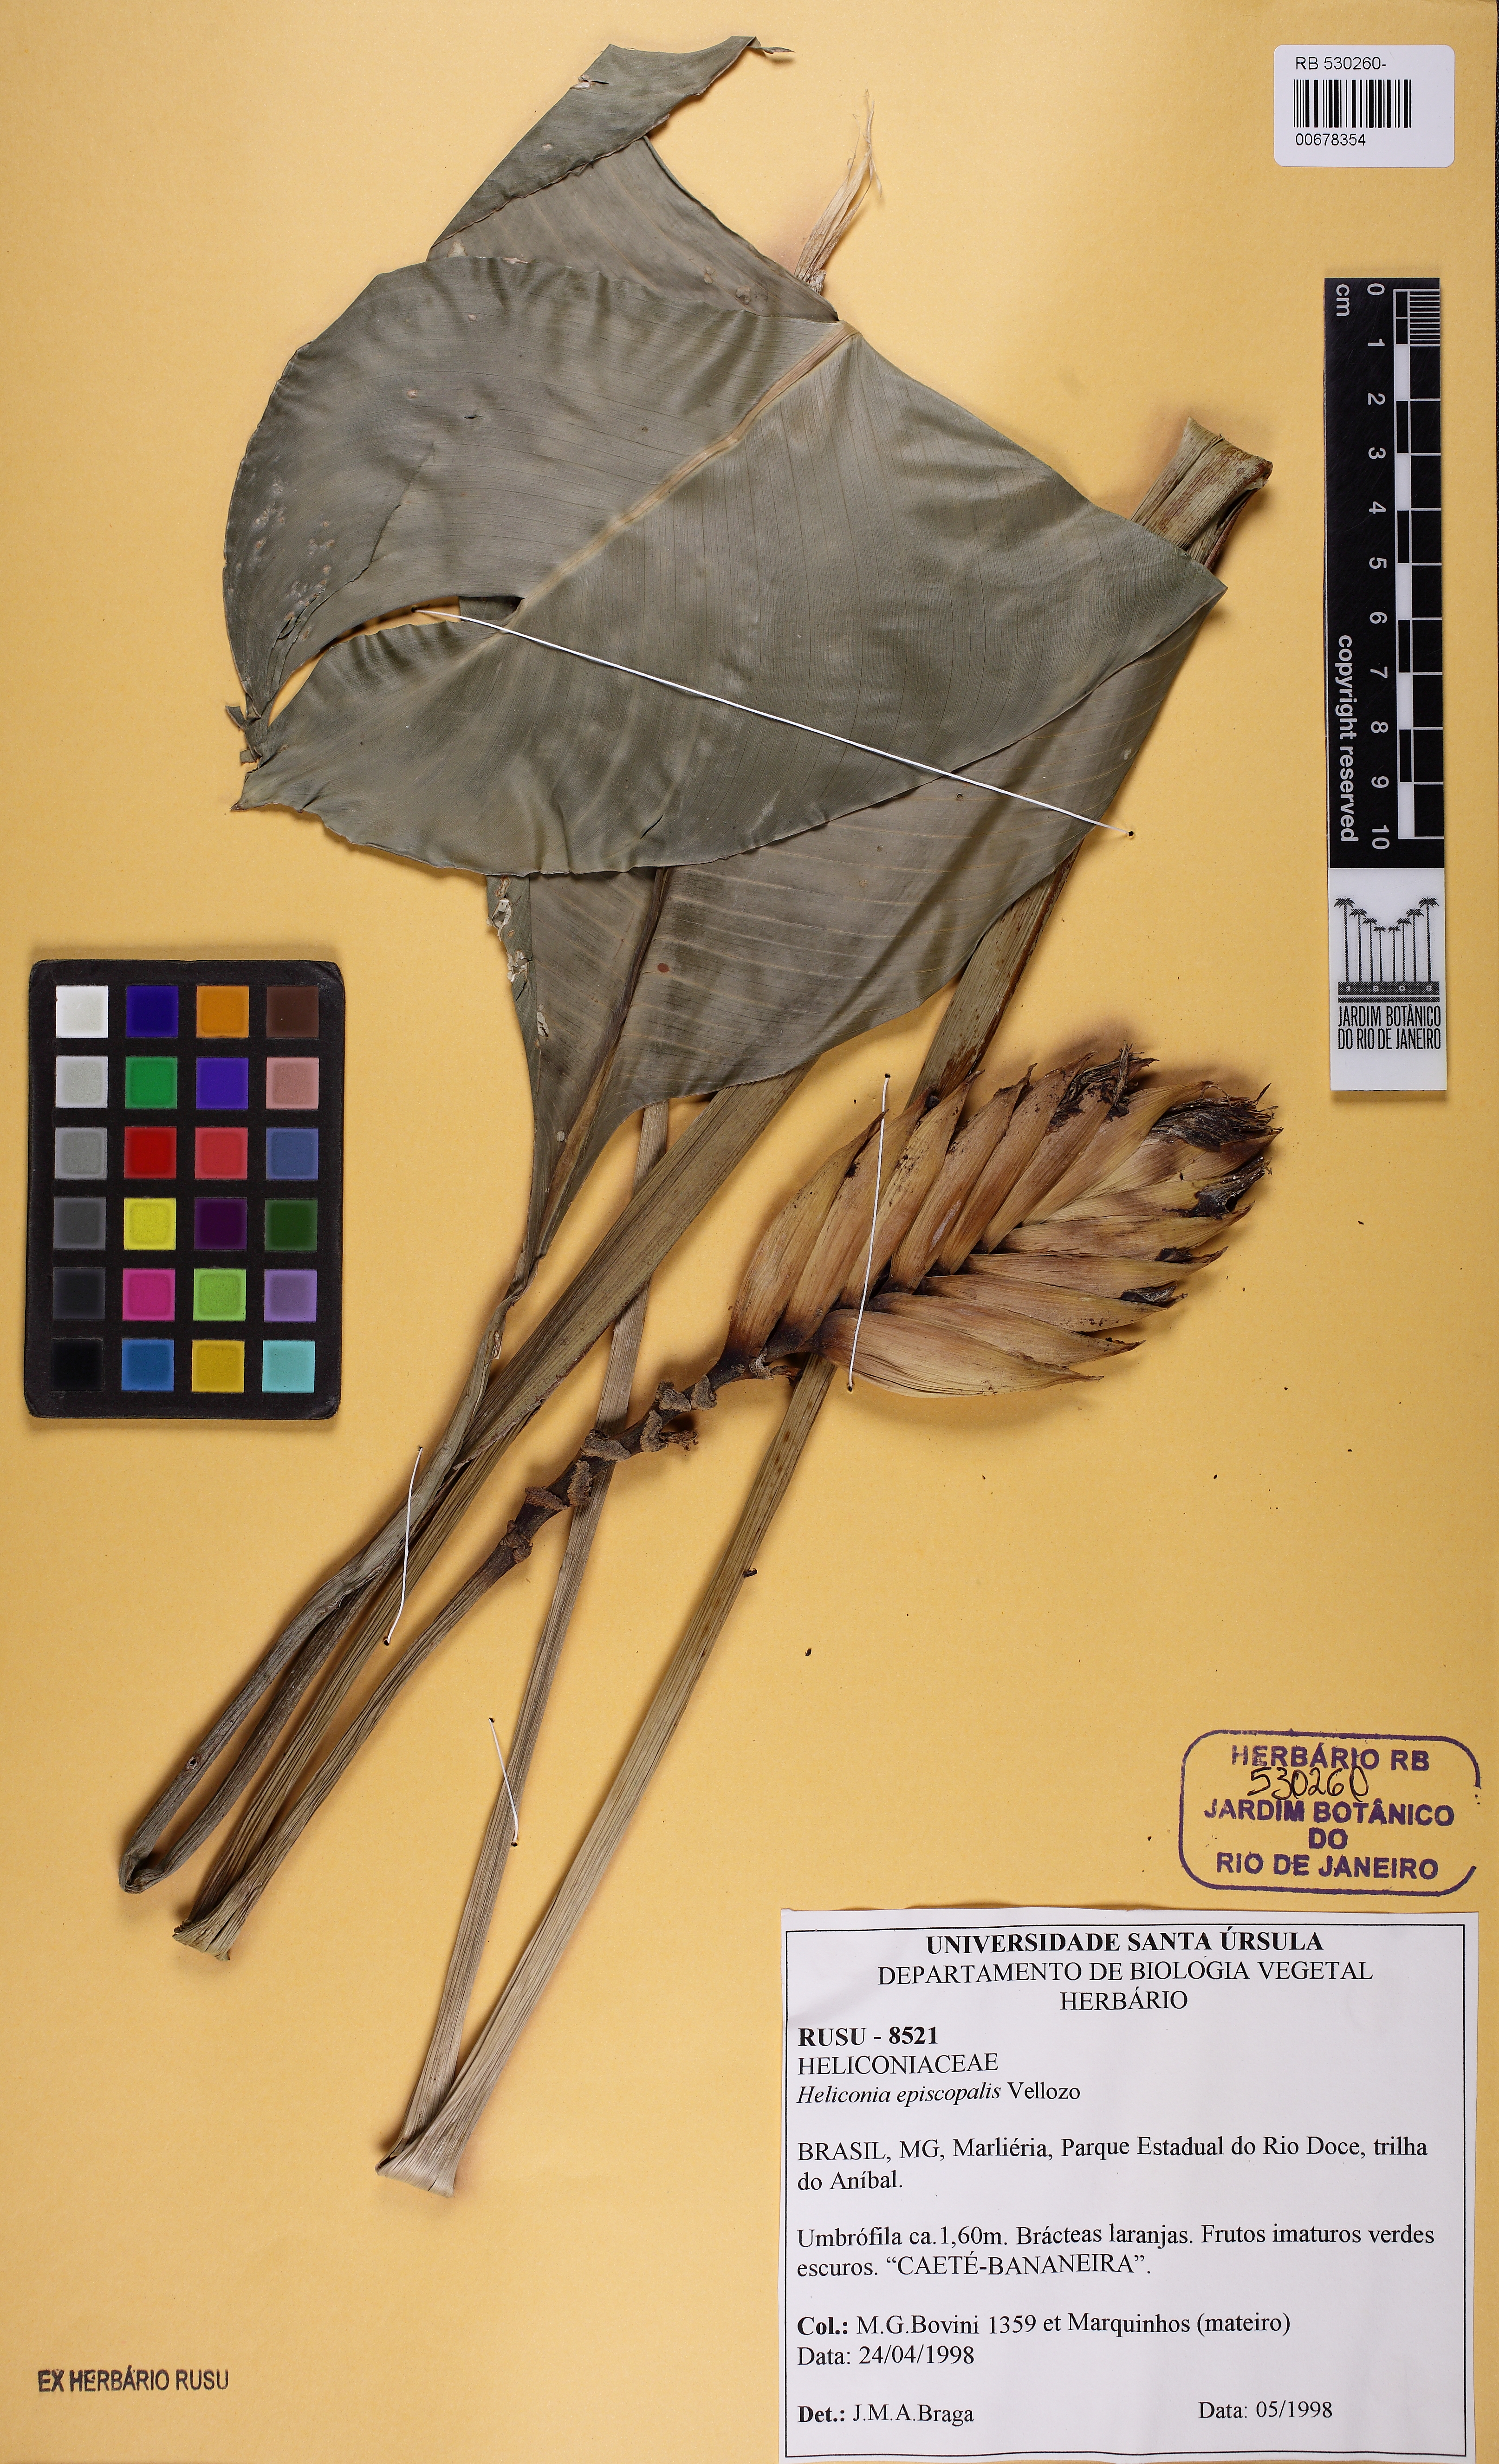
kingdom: Plantae
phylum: Tracheophyta
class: Liliopsida
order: Zingiberales
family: Heliconiaceae
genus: Heliconia
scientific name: Heliconia episcopalis
